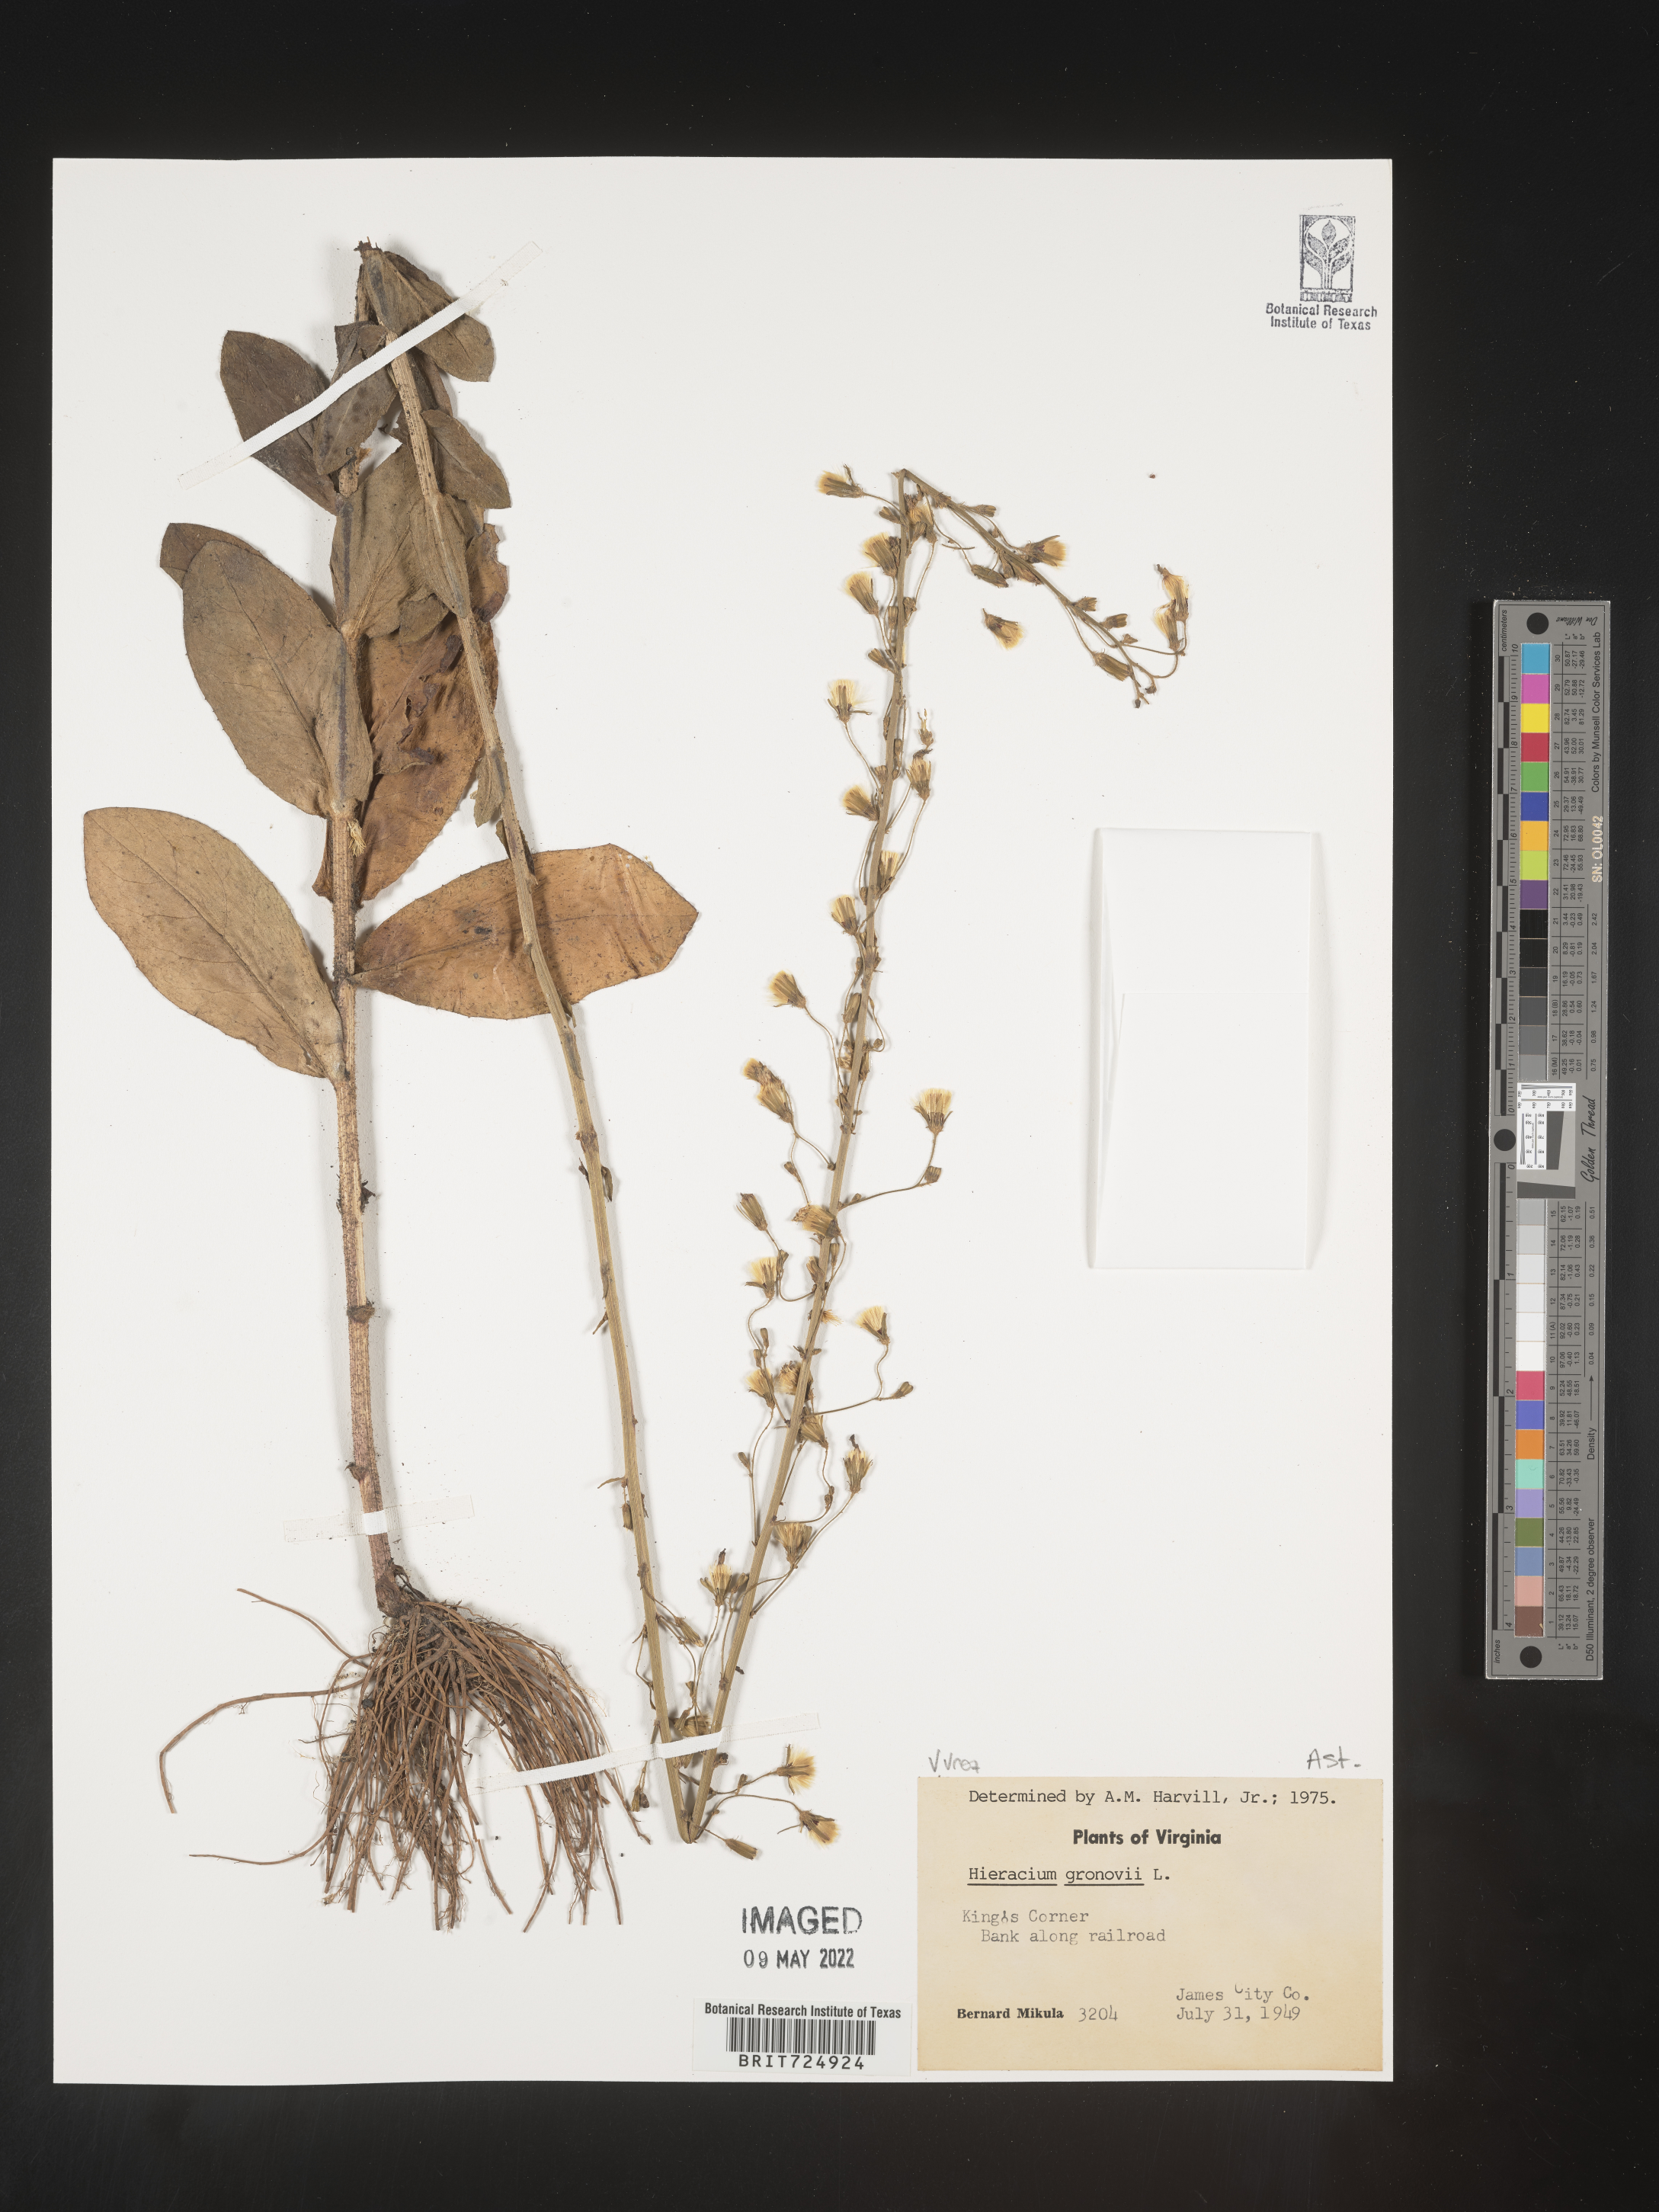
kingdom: Plantae
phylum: Tracheophyta
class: Magnoliopsida
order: Asterales
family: Asteraceae
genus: Hieracium
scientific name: Hieracium gronovii
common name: Beaked hawkweed
